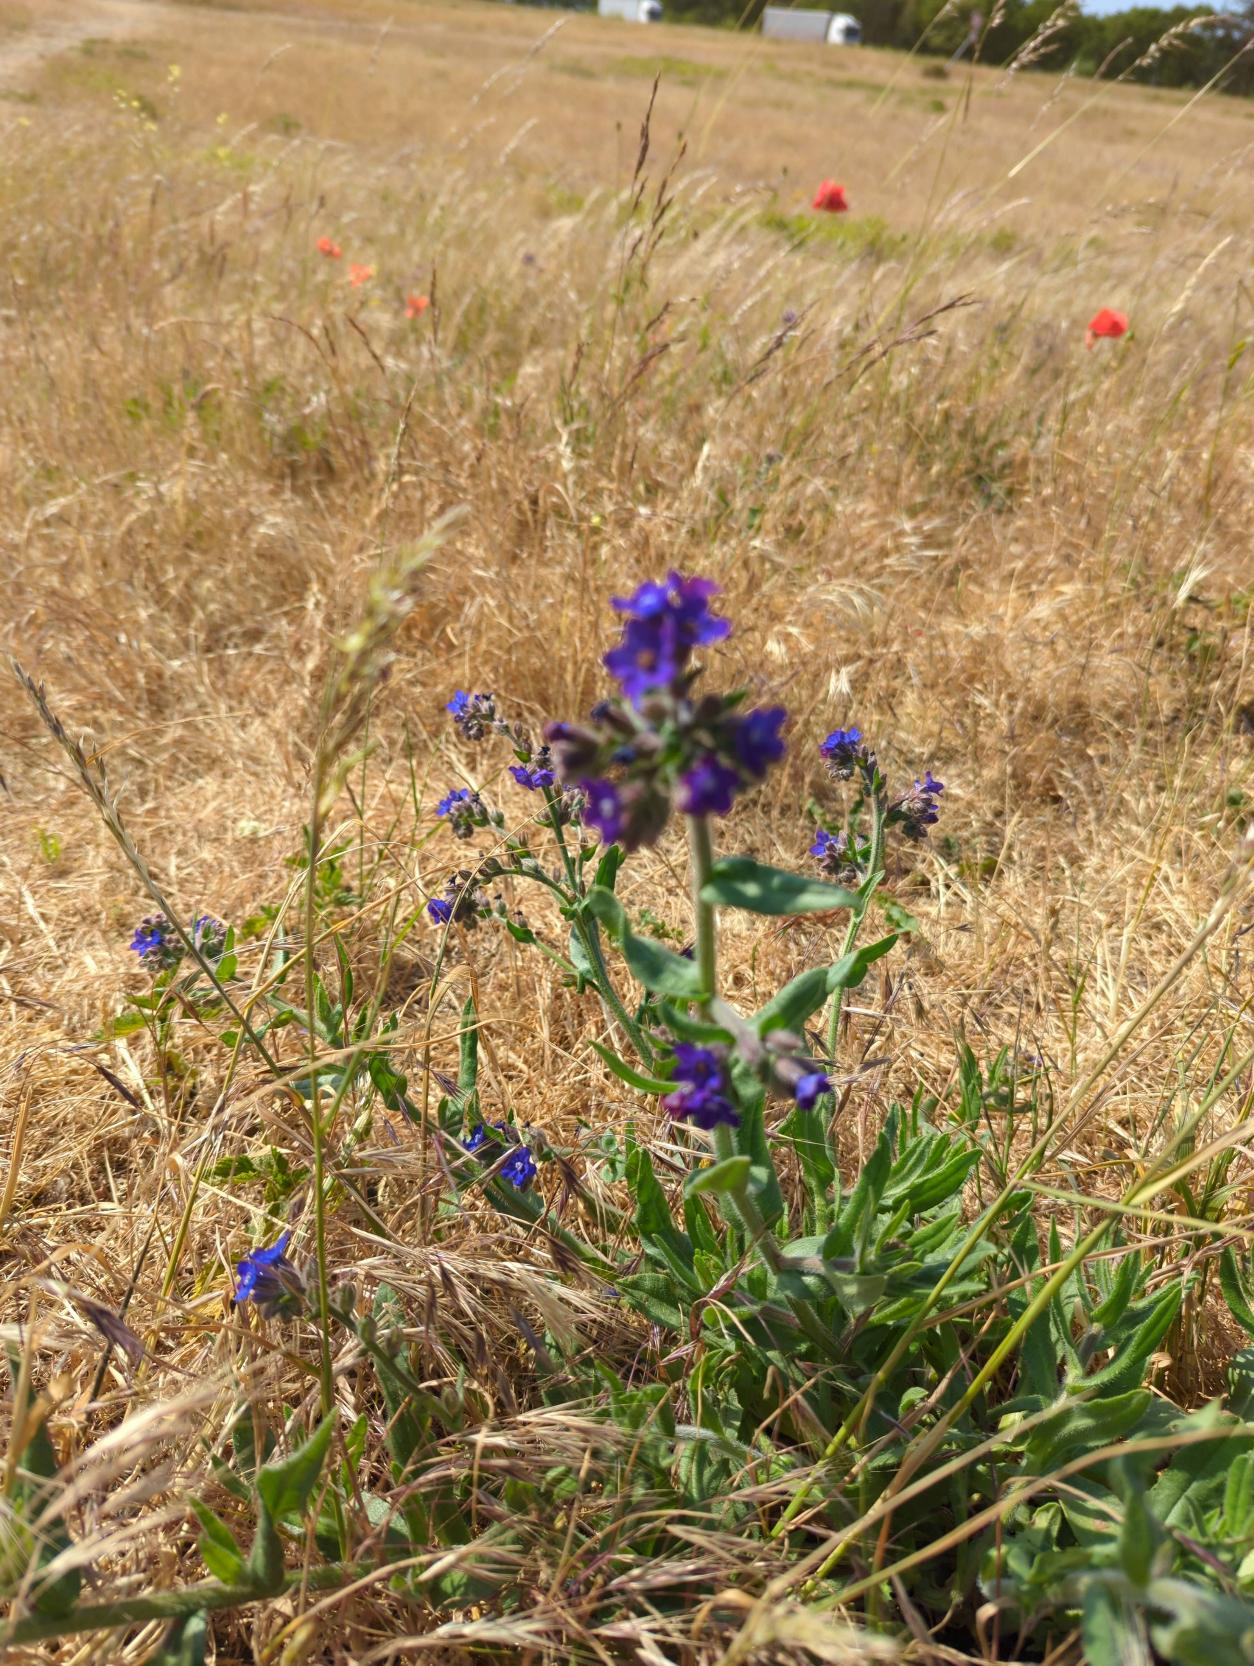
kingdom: Plantae
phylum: Tracheophyta
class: Magnoliopsida
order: Boraginales
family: Boraginaceae
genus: Anchusa
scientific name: Anchusa officinalis
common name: Læge-oksetunge
